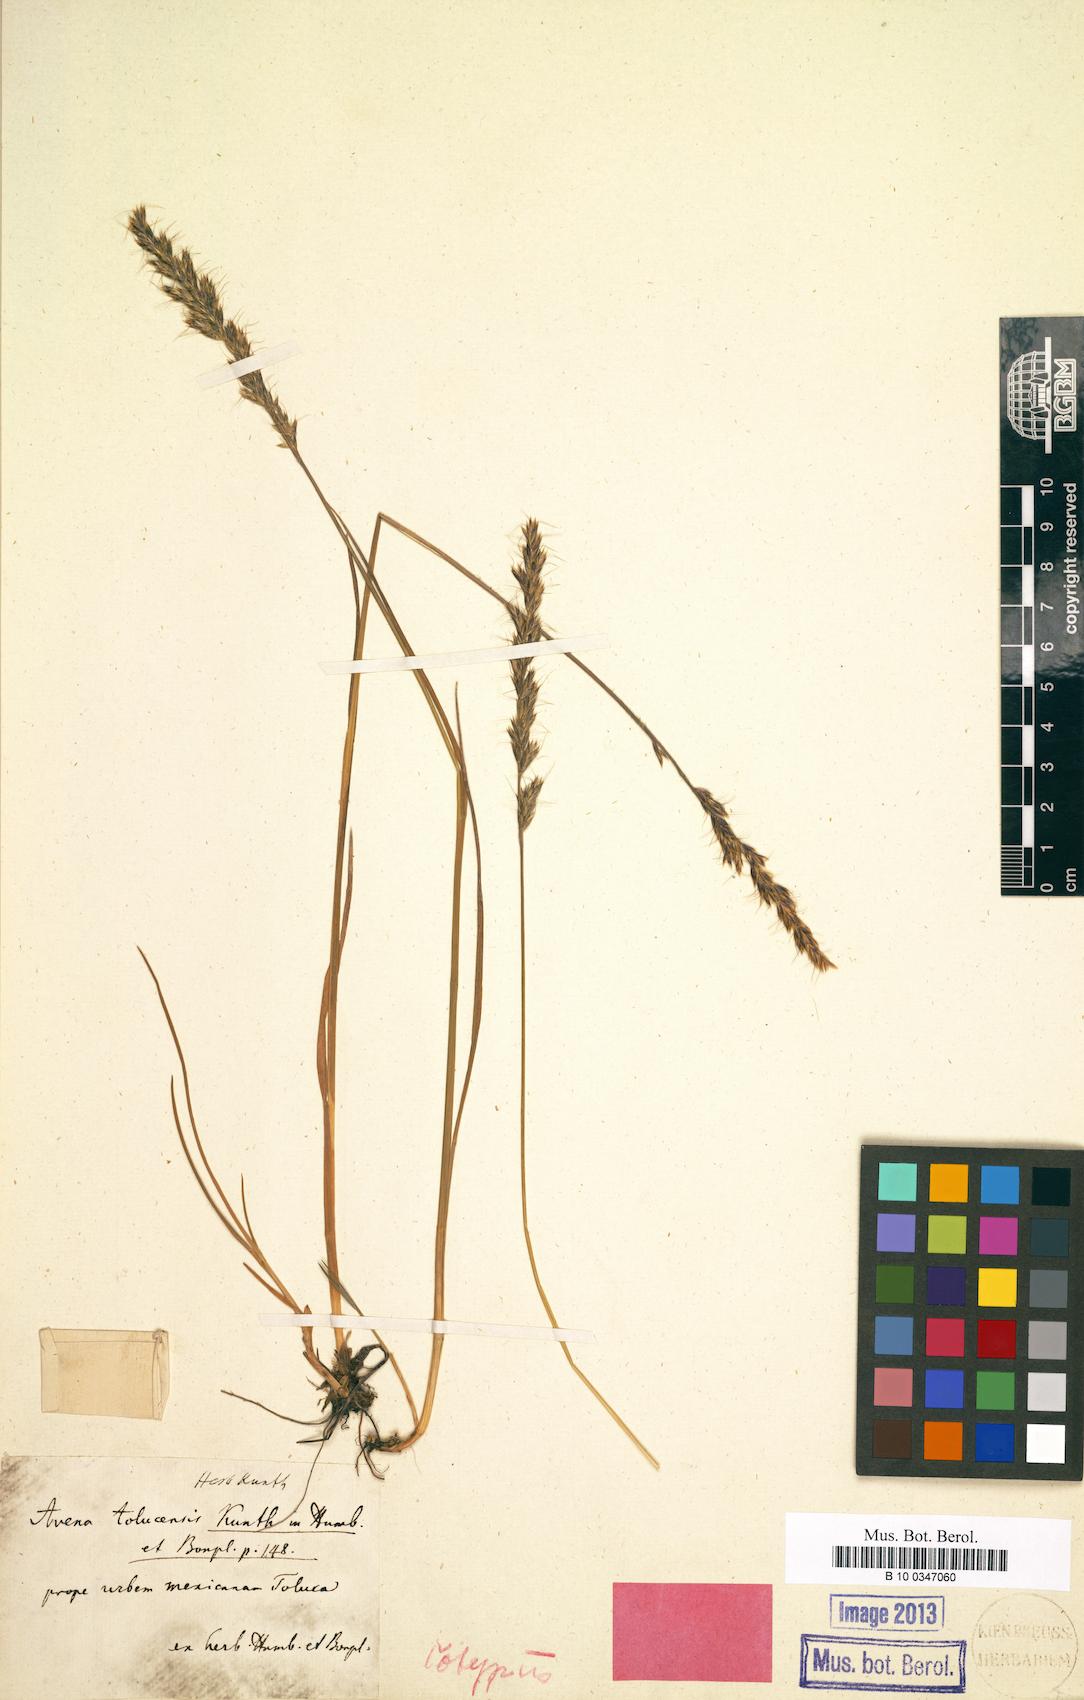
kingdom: Plantae
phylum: Tracheophyta
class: Liliopsida
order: Poales
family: Poaceae
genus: Koeleria
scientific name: Koeleria spicata
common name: Mountain trisetum
